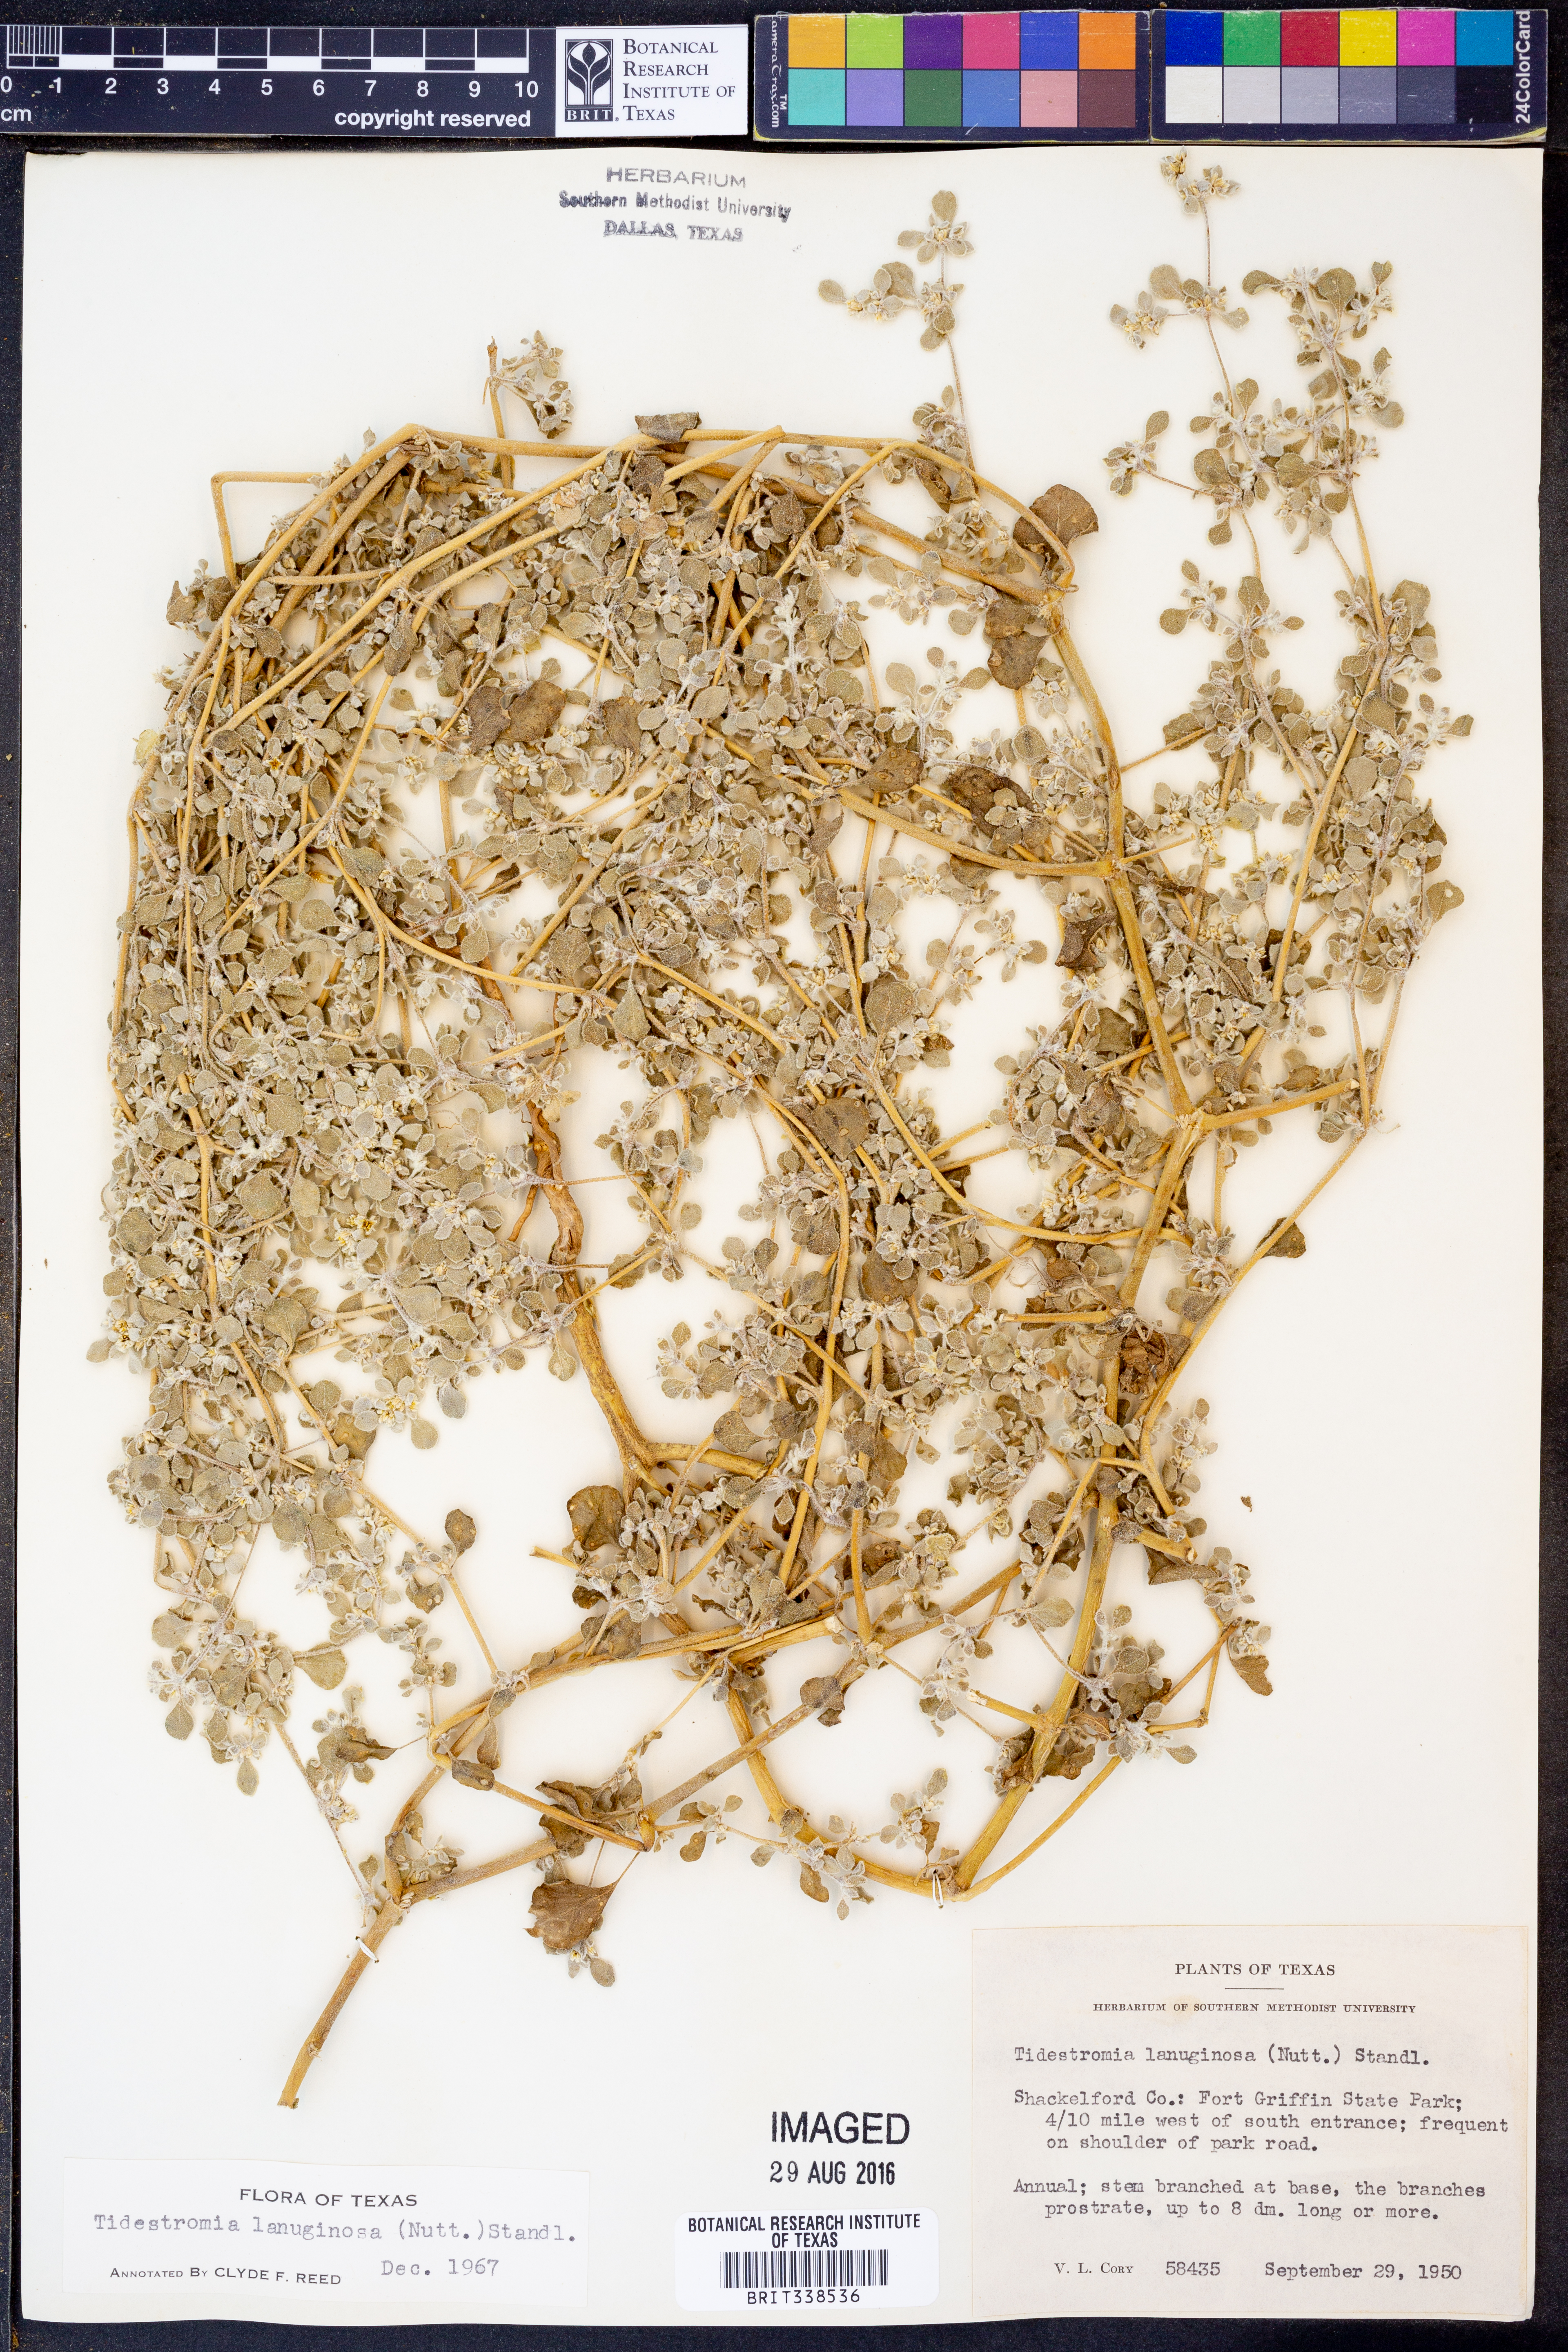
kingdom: Plantae
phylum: Tracheophyta
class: Magnoliopsida
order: Caryophyllales
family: Amaranthaceae
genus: Tidestromia
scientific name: Tidestromia lanuginosa
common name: Woolly tidestromia
